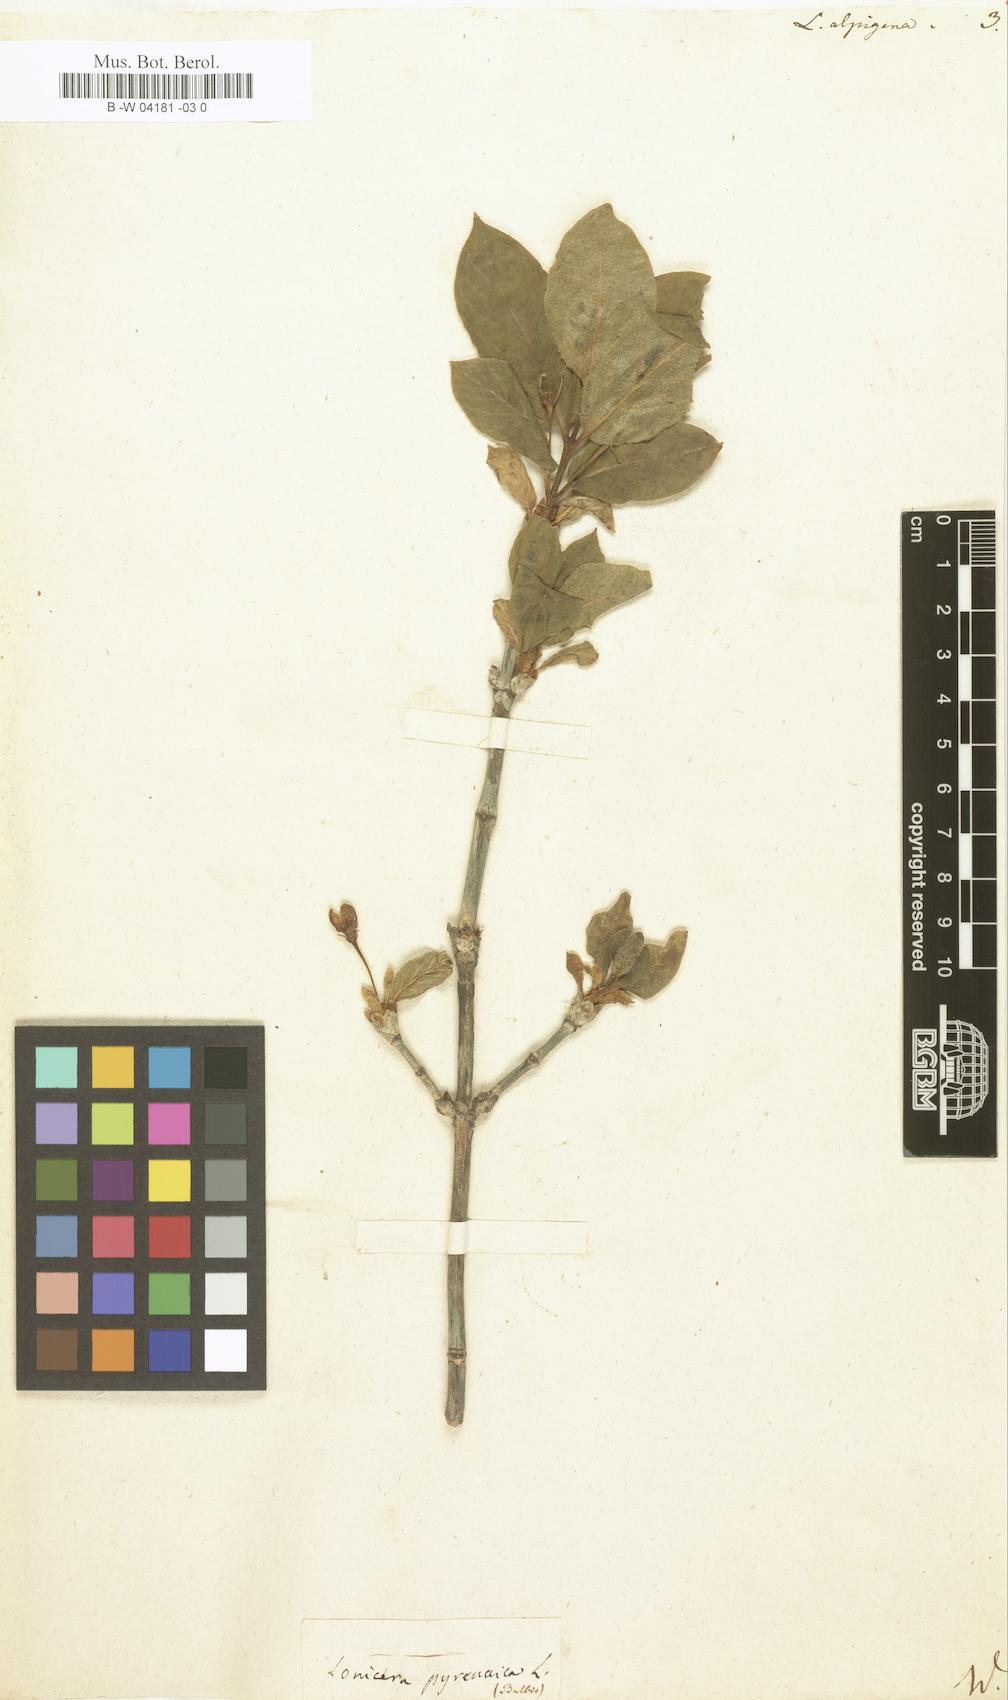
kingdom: Plantae
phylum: Tracheophyta
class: Magnoliopsida
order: Dipsacales
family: Caprifoliaceae
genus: Lonicera
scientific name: Lonicera alpigena
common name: Alpine honeysuckle
